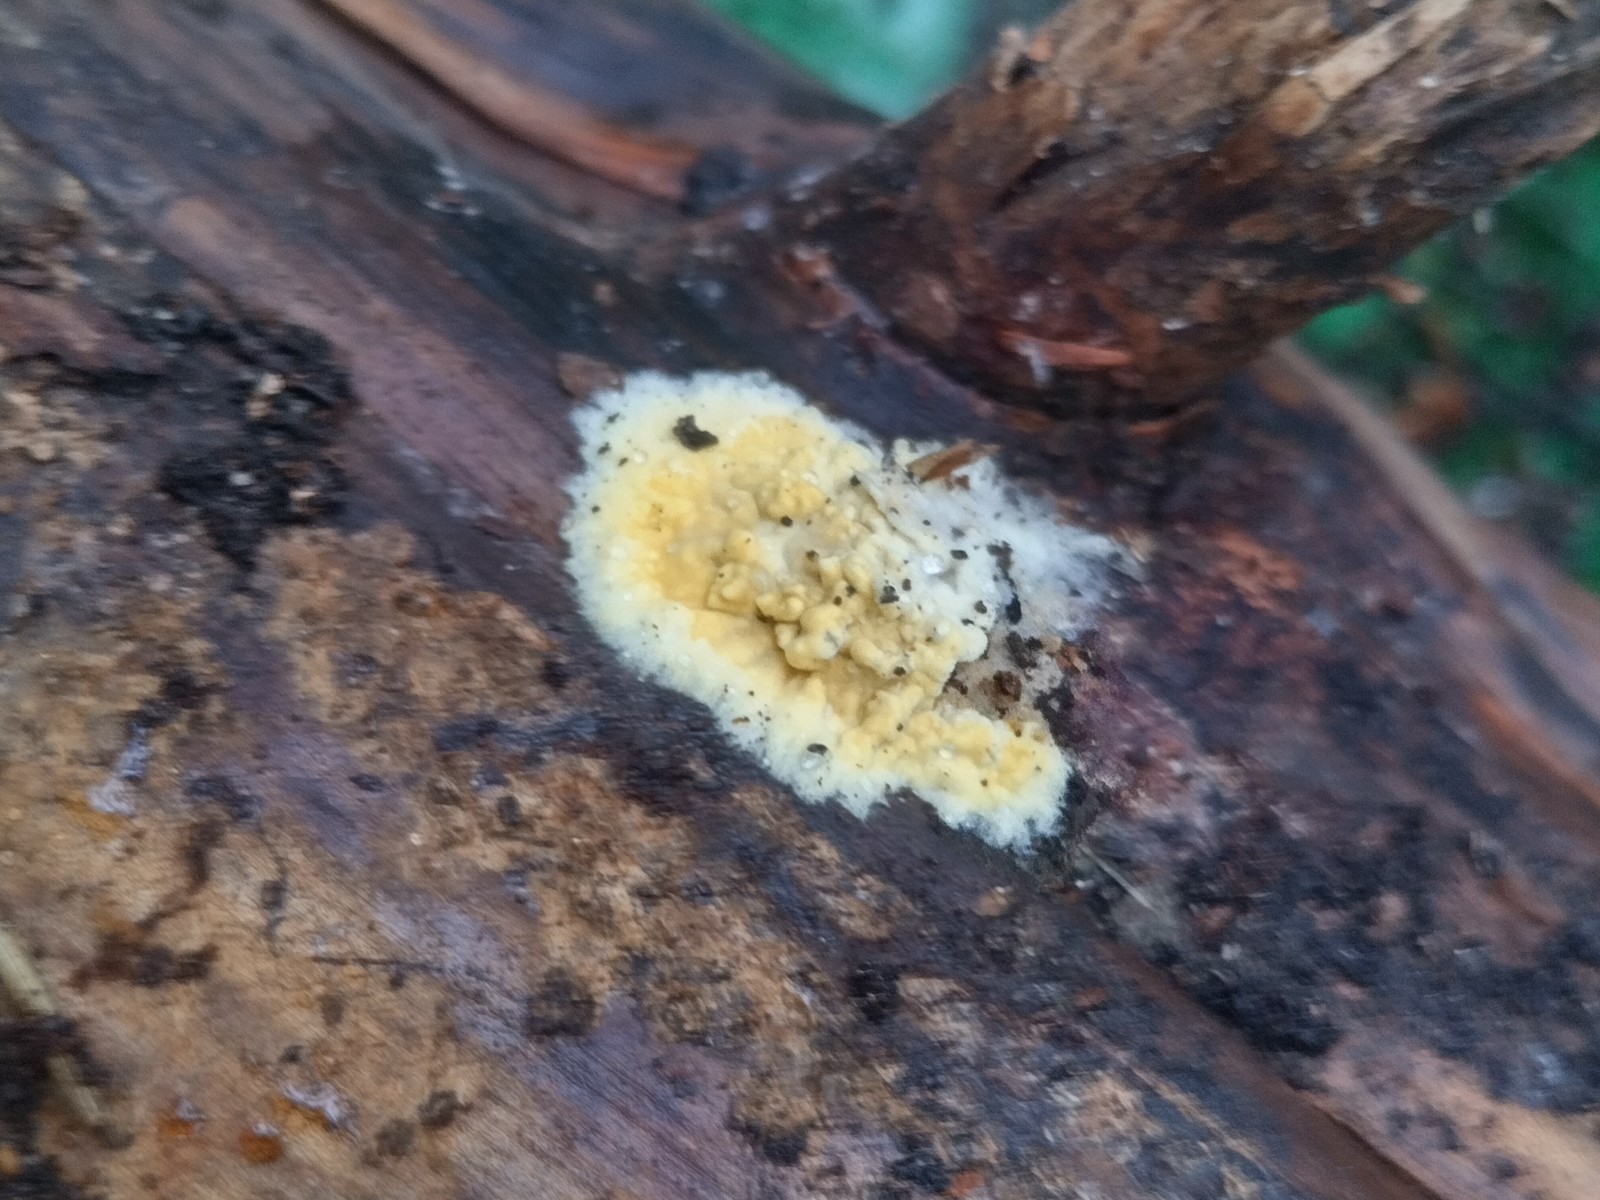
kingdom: Fungi
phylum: Basidiomycota
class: Agaricomycetes
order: Boletales
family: Coniophoraceae
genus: Coniophora
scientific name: Coniophora puteana
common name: gul tømmersvamp
